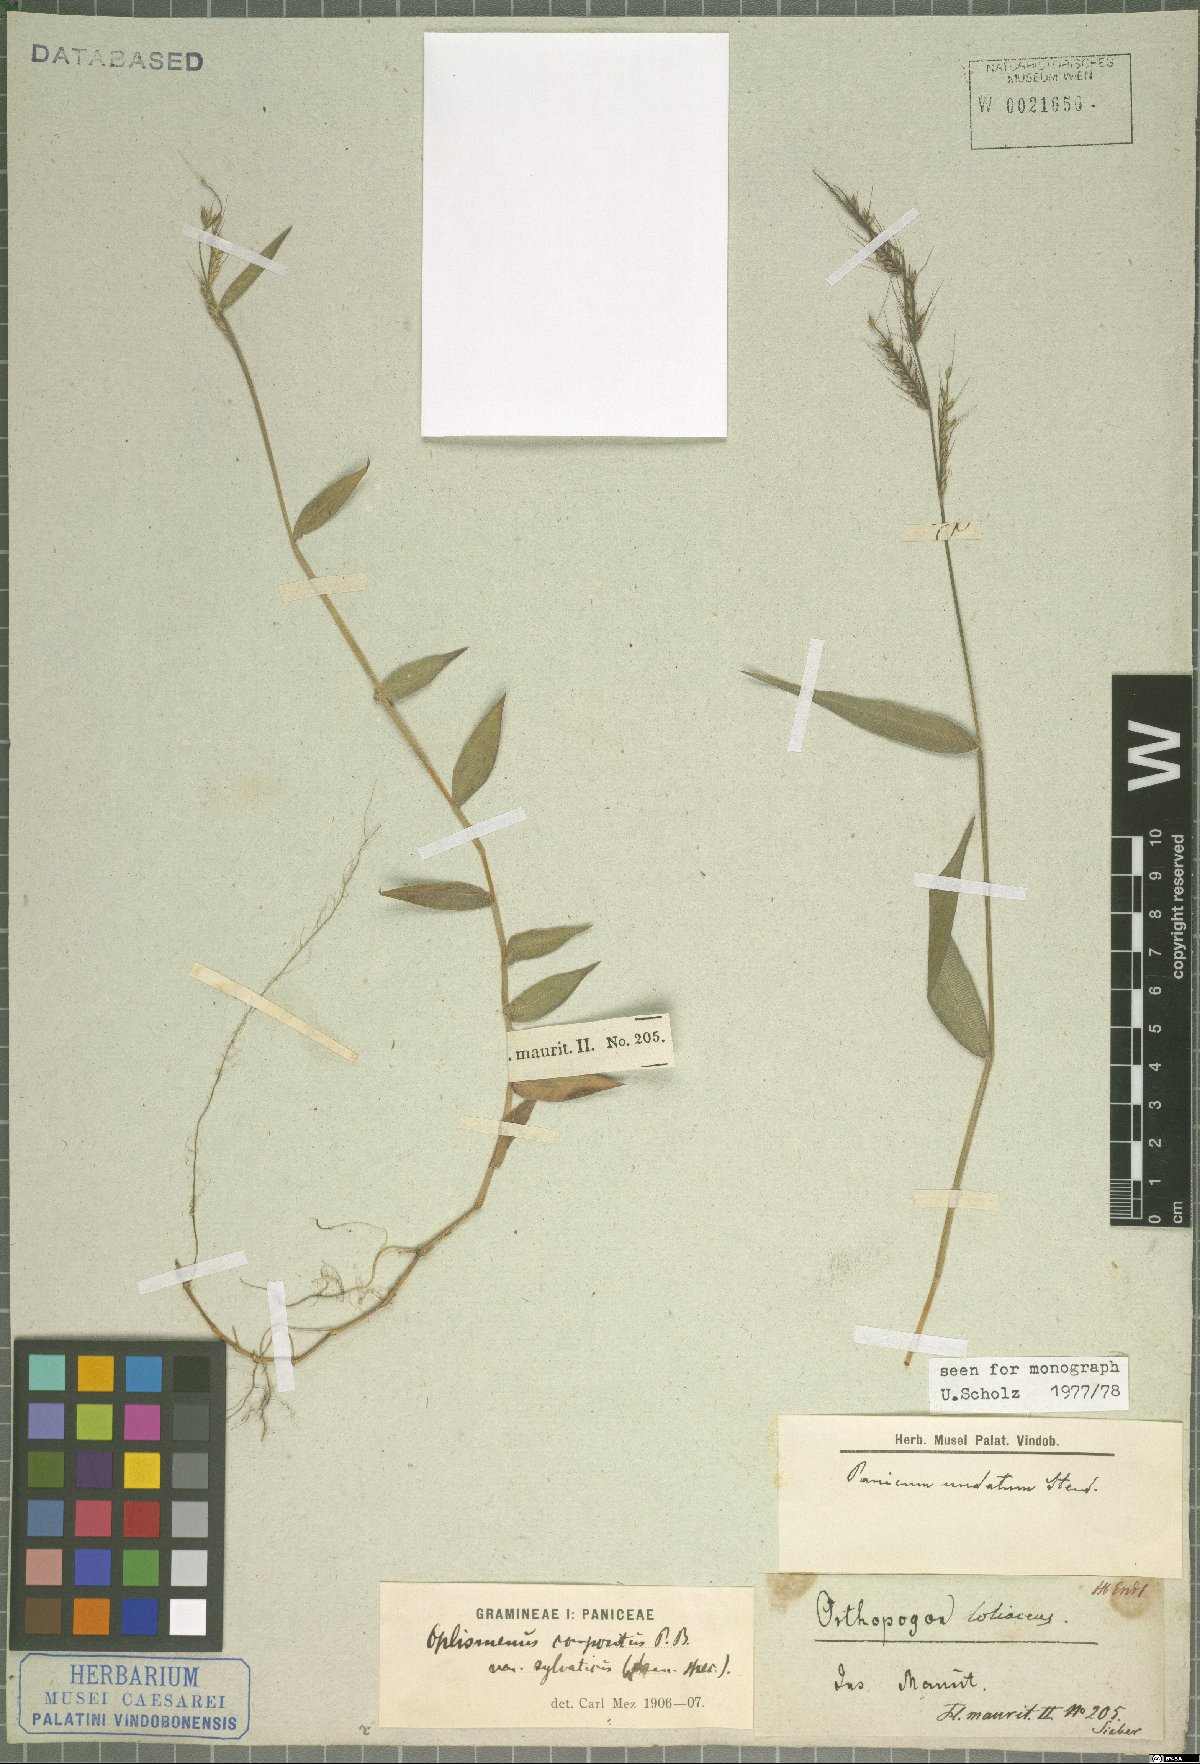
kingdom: Plantae
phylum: Tracheophyta
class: Liliopsida
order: Poales
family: Poaceae
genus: Oplismenus
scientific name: Oplismenus compositus
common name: Running mountain grass
